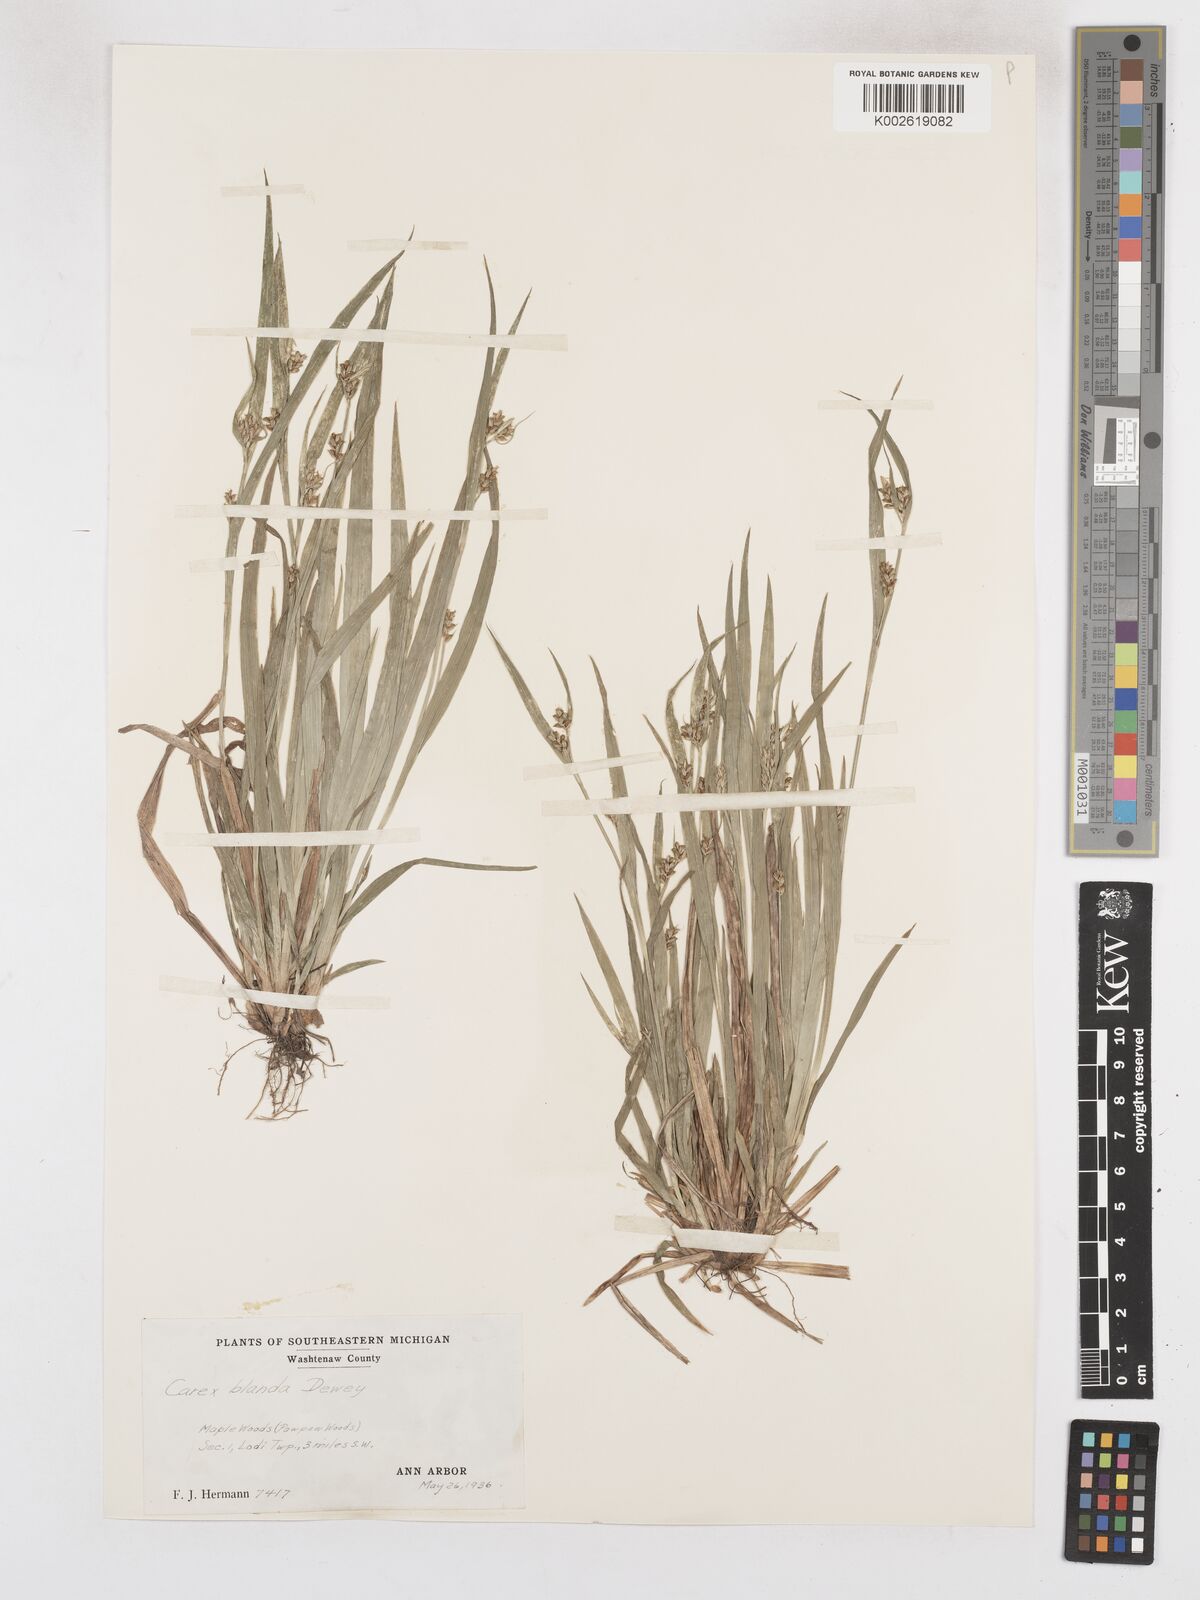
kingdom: Plantae
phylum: Tracheophyta
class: Liliopsida
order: Poales
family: Cyperaceae
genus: Carex
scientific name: Carex blanda
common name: Bland sedge
